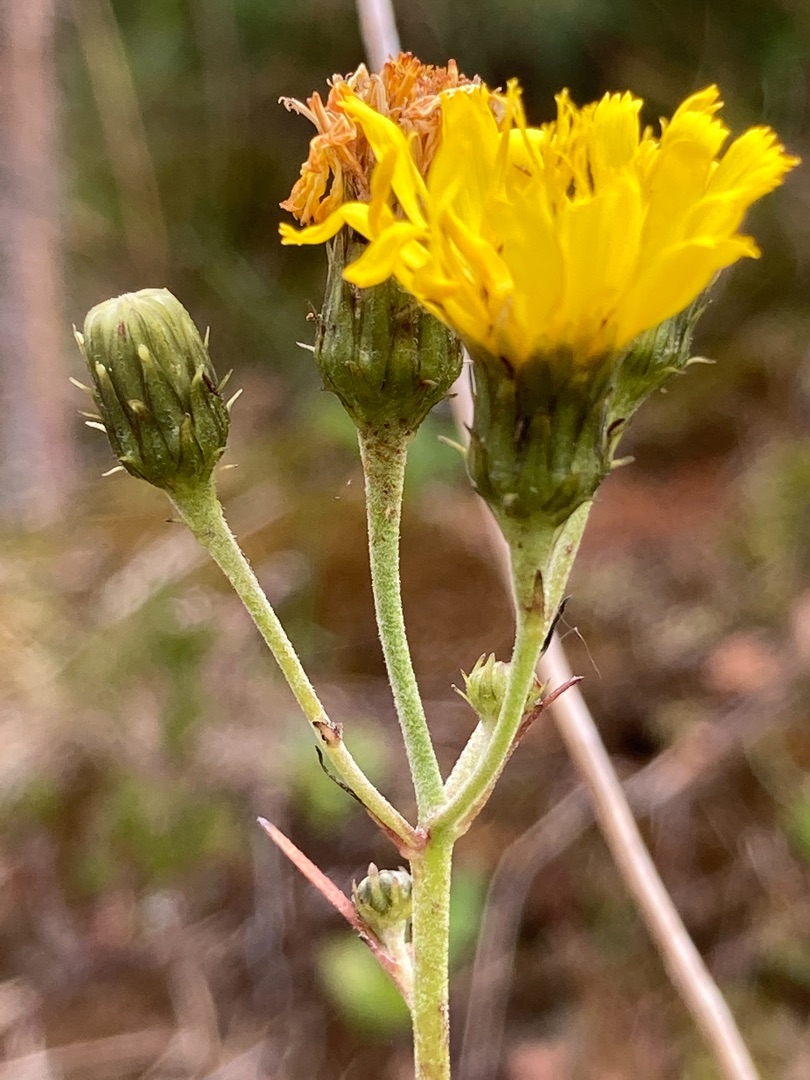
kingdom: Plantae
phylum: Tracheophyta
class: Magnoliopsida
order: Asterales
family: Asteraceae
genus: Hieracium
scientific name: Hieracium umbellatum
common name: Smalbladet høgeurt
